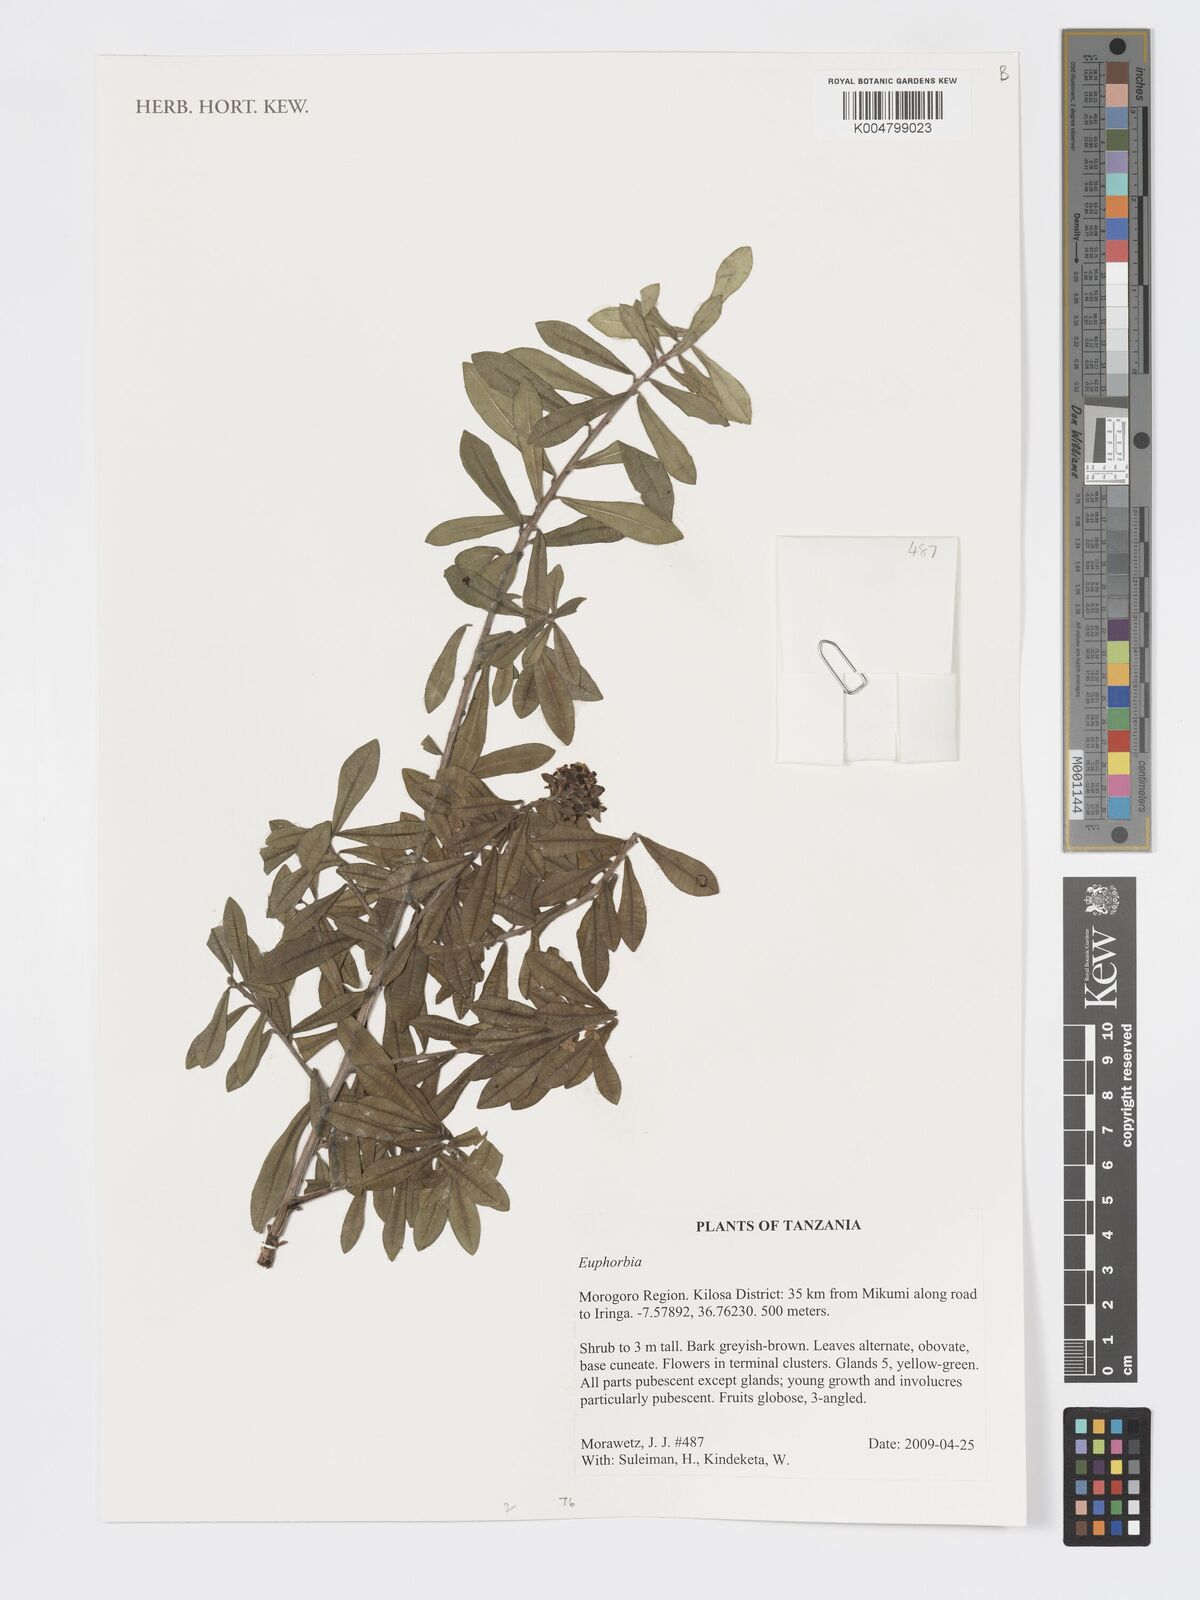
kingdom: Plantae
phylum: Tracheophyta
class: Magnoliopsida
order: Malpighiales
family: Euphorbiaceae
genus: Euphorbia
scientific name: Euphorbia
